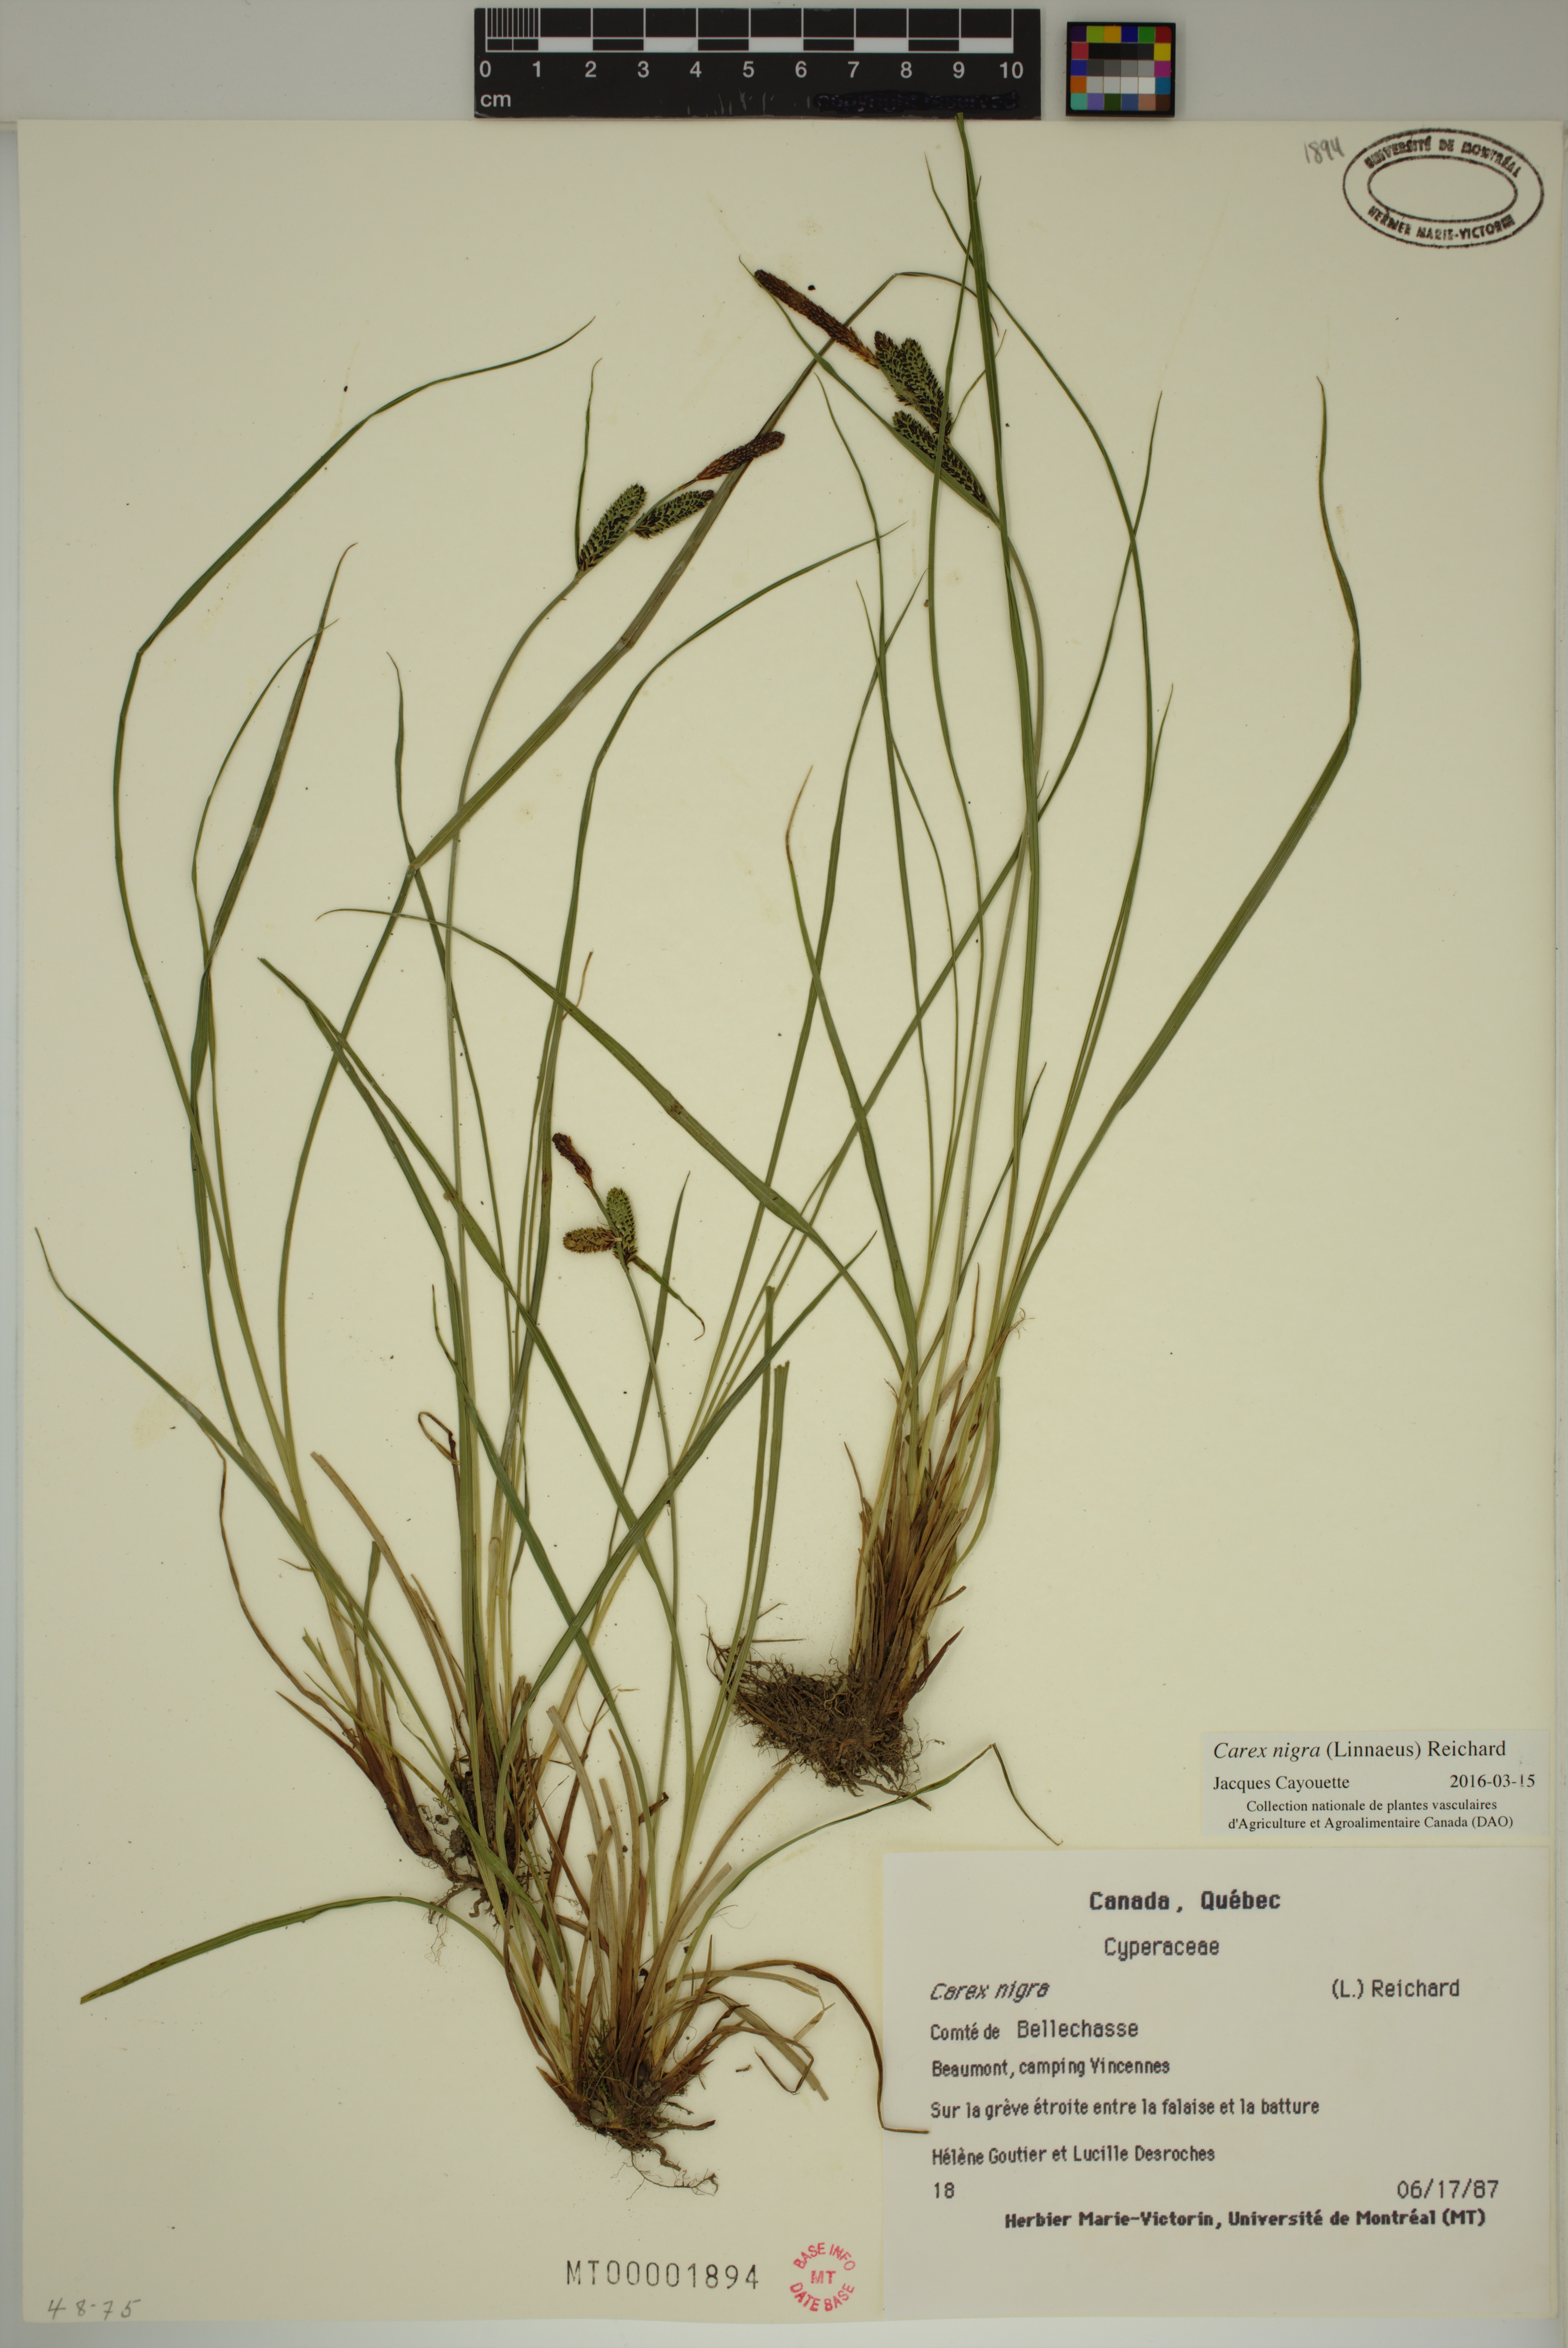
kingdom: Plantae
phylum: Tracheophyta
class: Liliopsida
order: Poales
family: Cyperaceae
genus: Carex
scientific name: Carex nigra
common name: Common sedge
